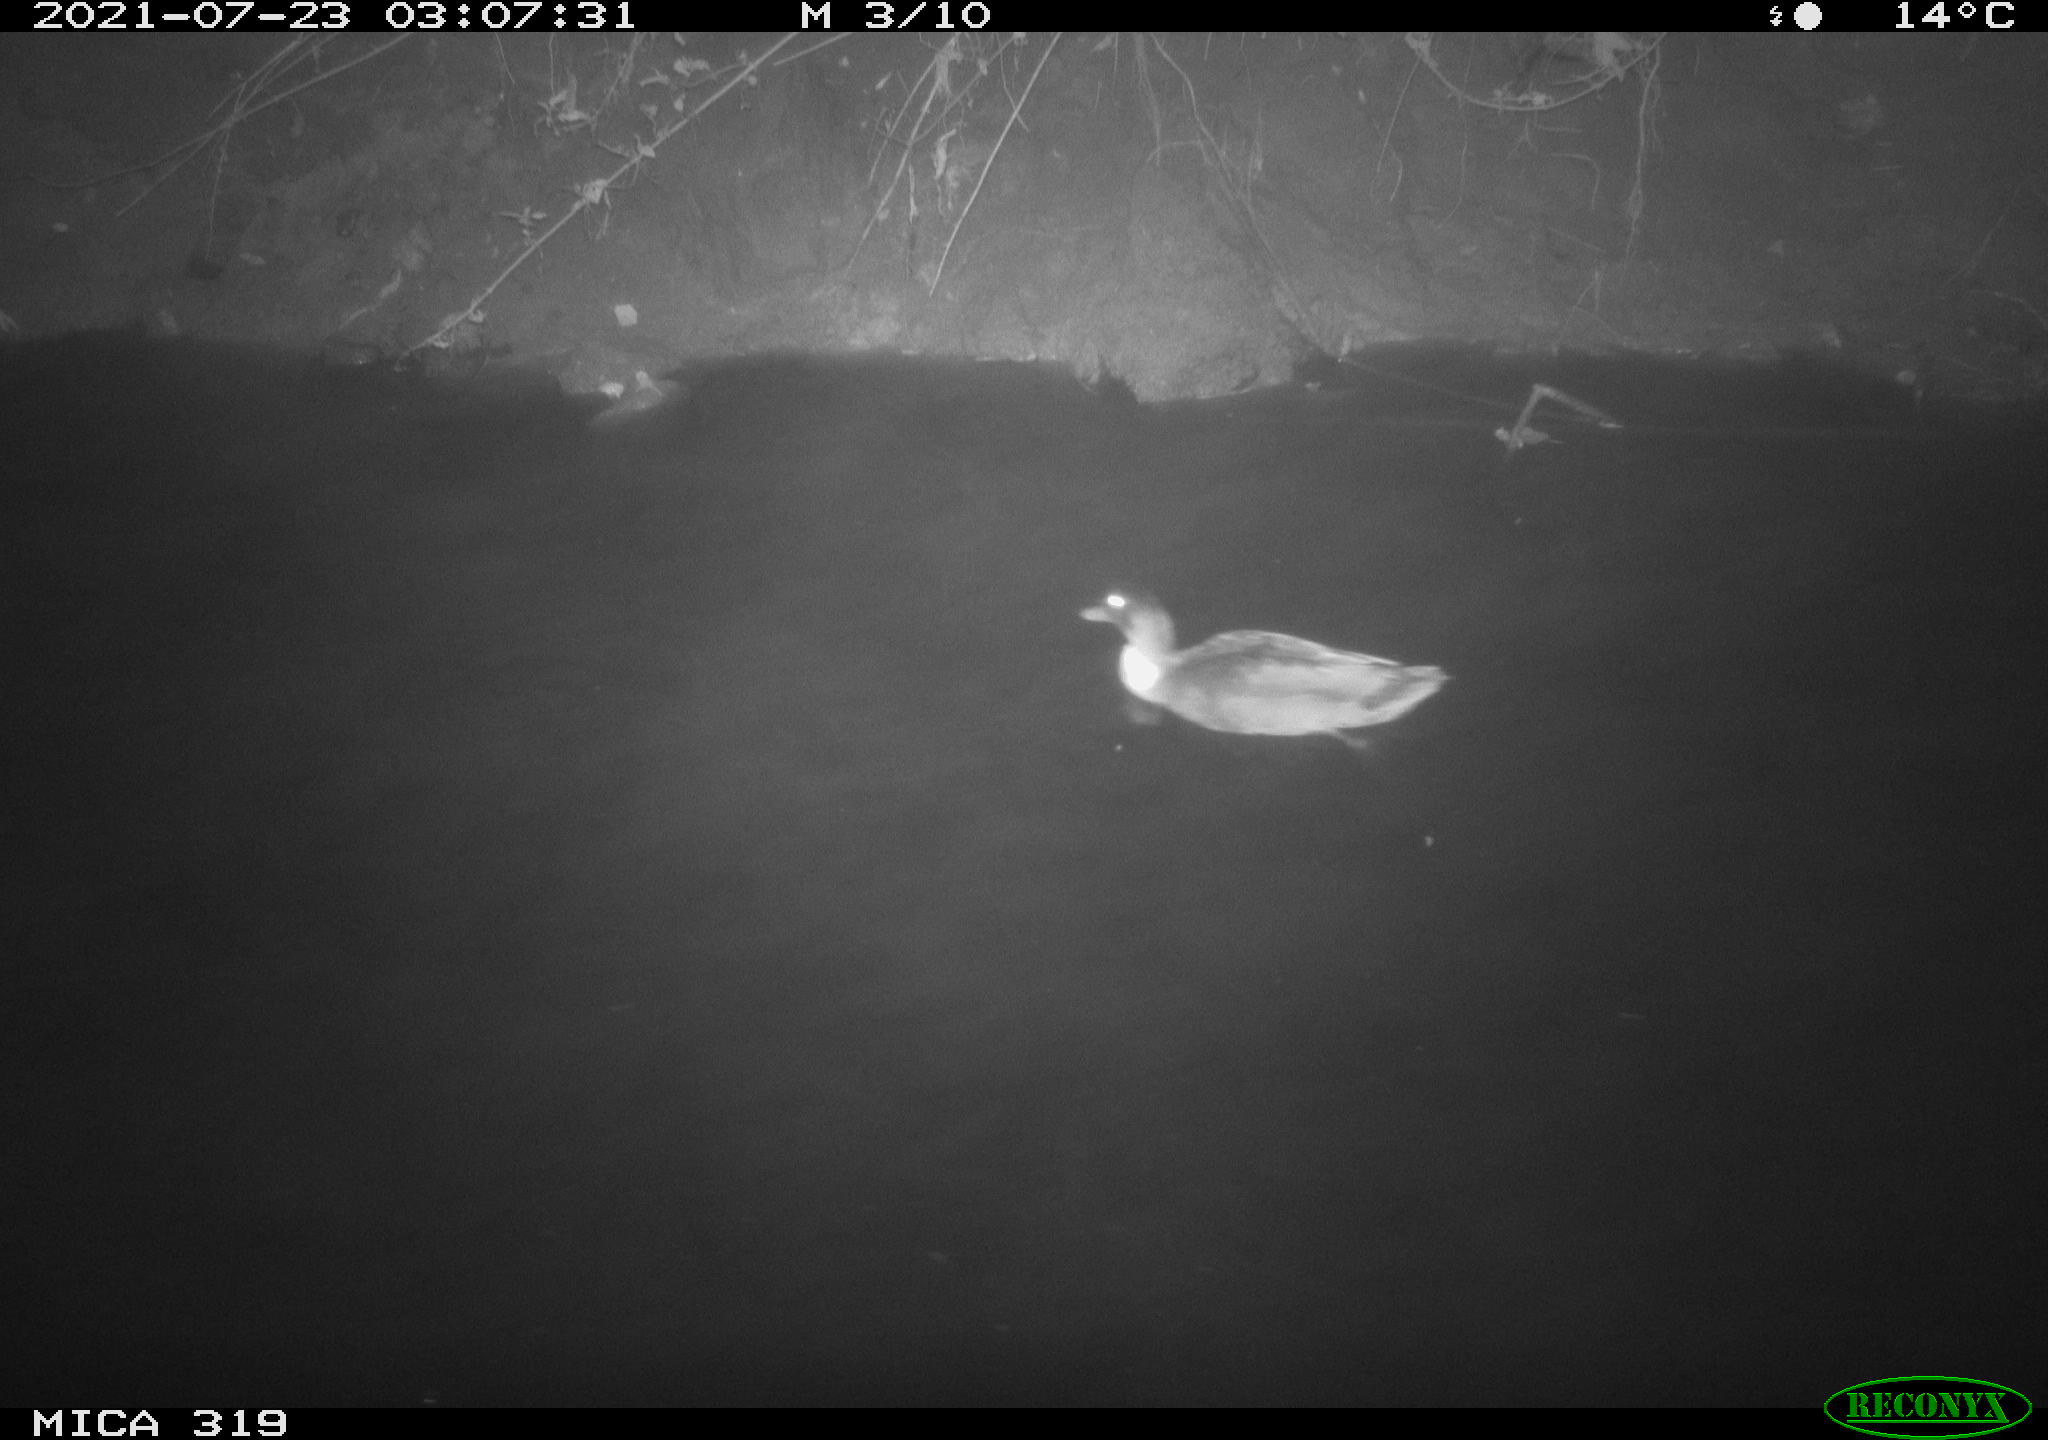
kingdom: Animalia
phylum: Chordata
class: Aves
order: Anseriformes
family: Anatidae
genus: Anas
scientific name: Anas platyrhynchos
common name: Mallard
